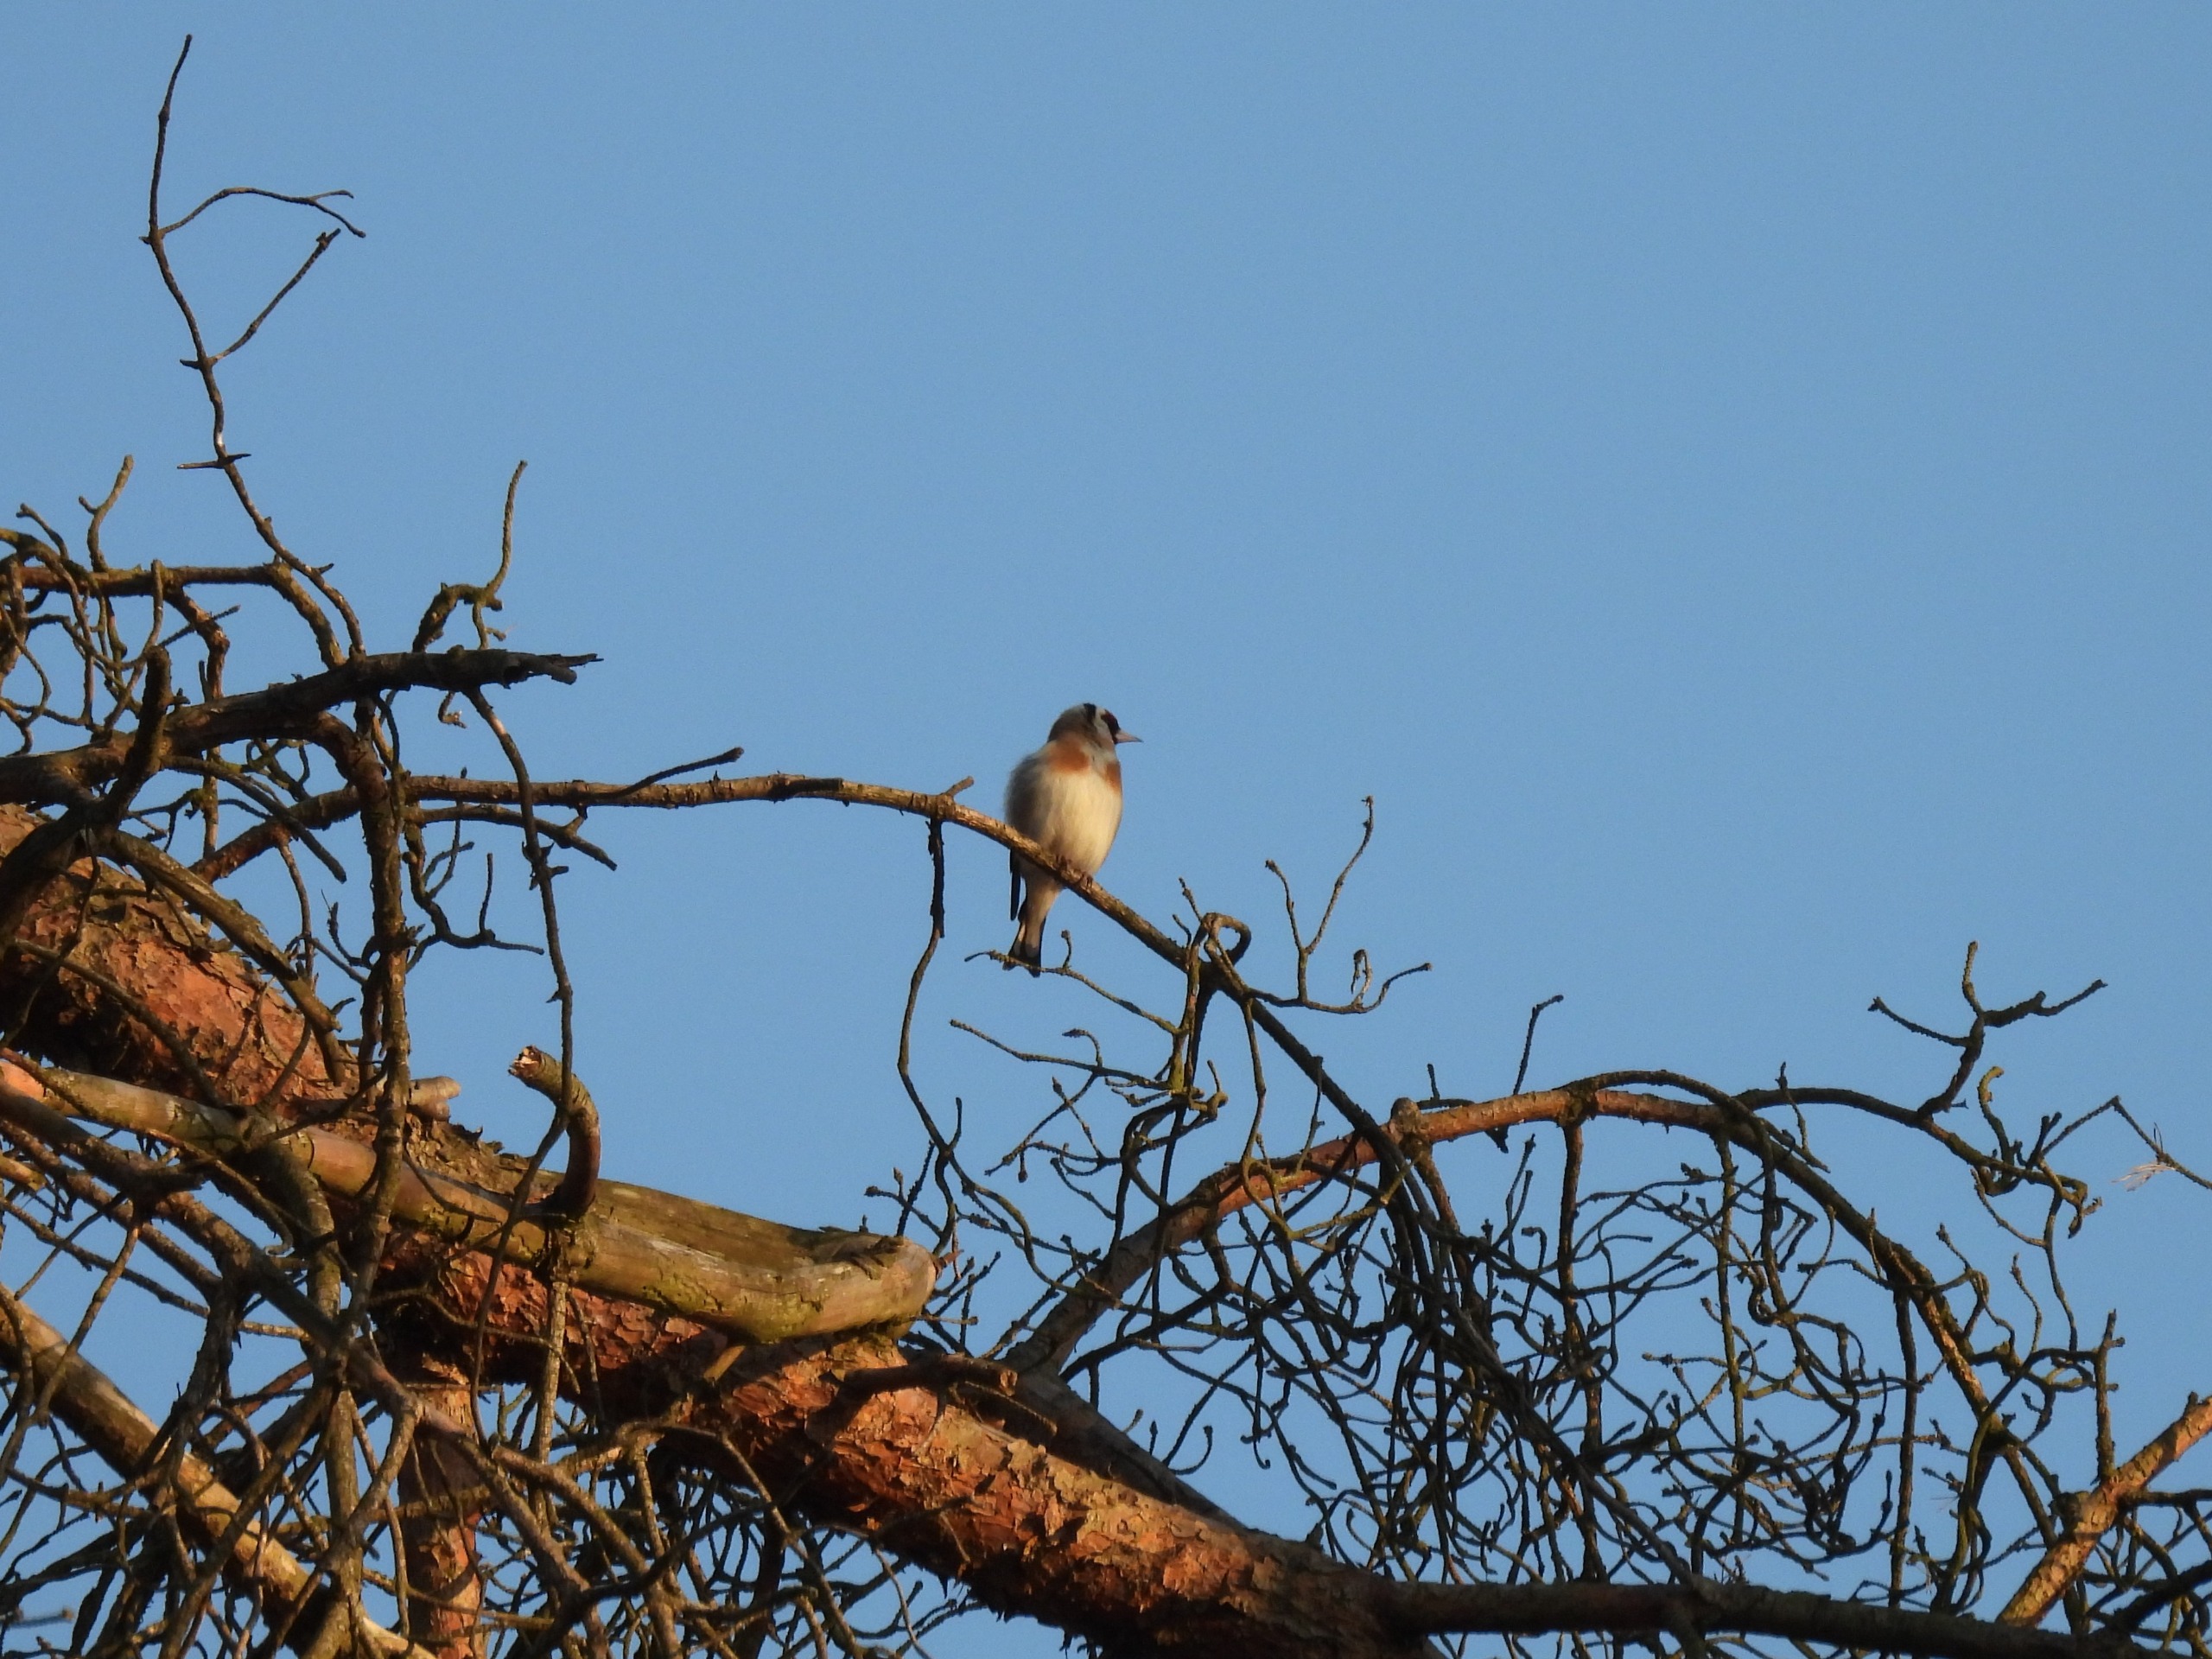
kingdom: Animalia
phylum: Chordata
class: Aves
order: Passeriformes
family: Fringillidae
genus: Carduelis
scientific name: Carduelis carduelis
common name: Stillits
